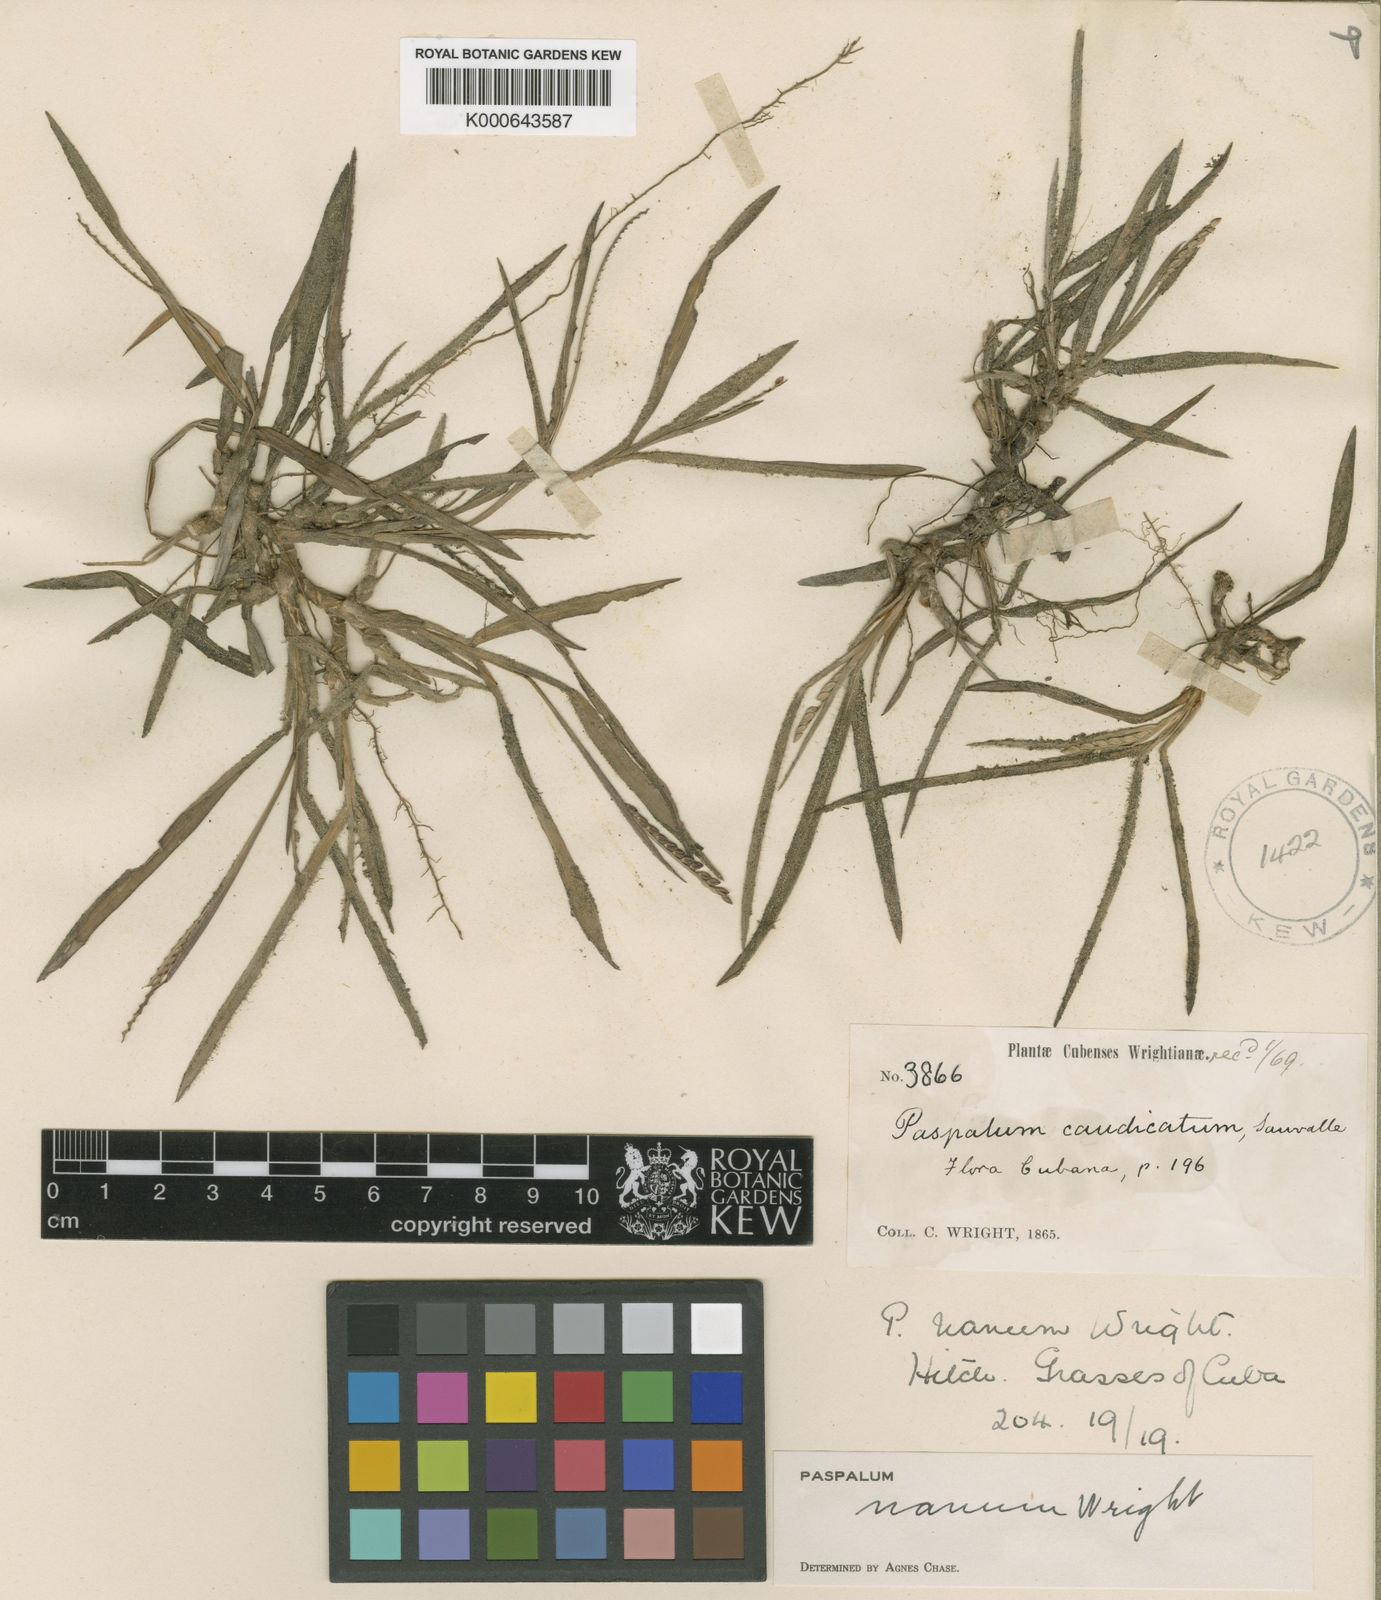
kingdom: Plantae
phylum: Tracheophyta
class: Liliopsida
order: Poales
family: Poaceae
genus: Paspalum
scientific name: Paspalum nanum
